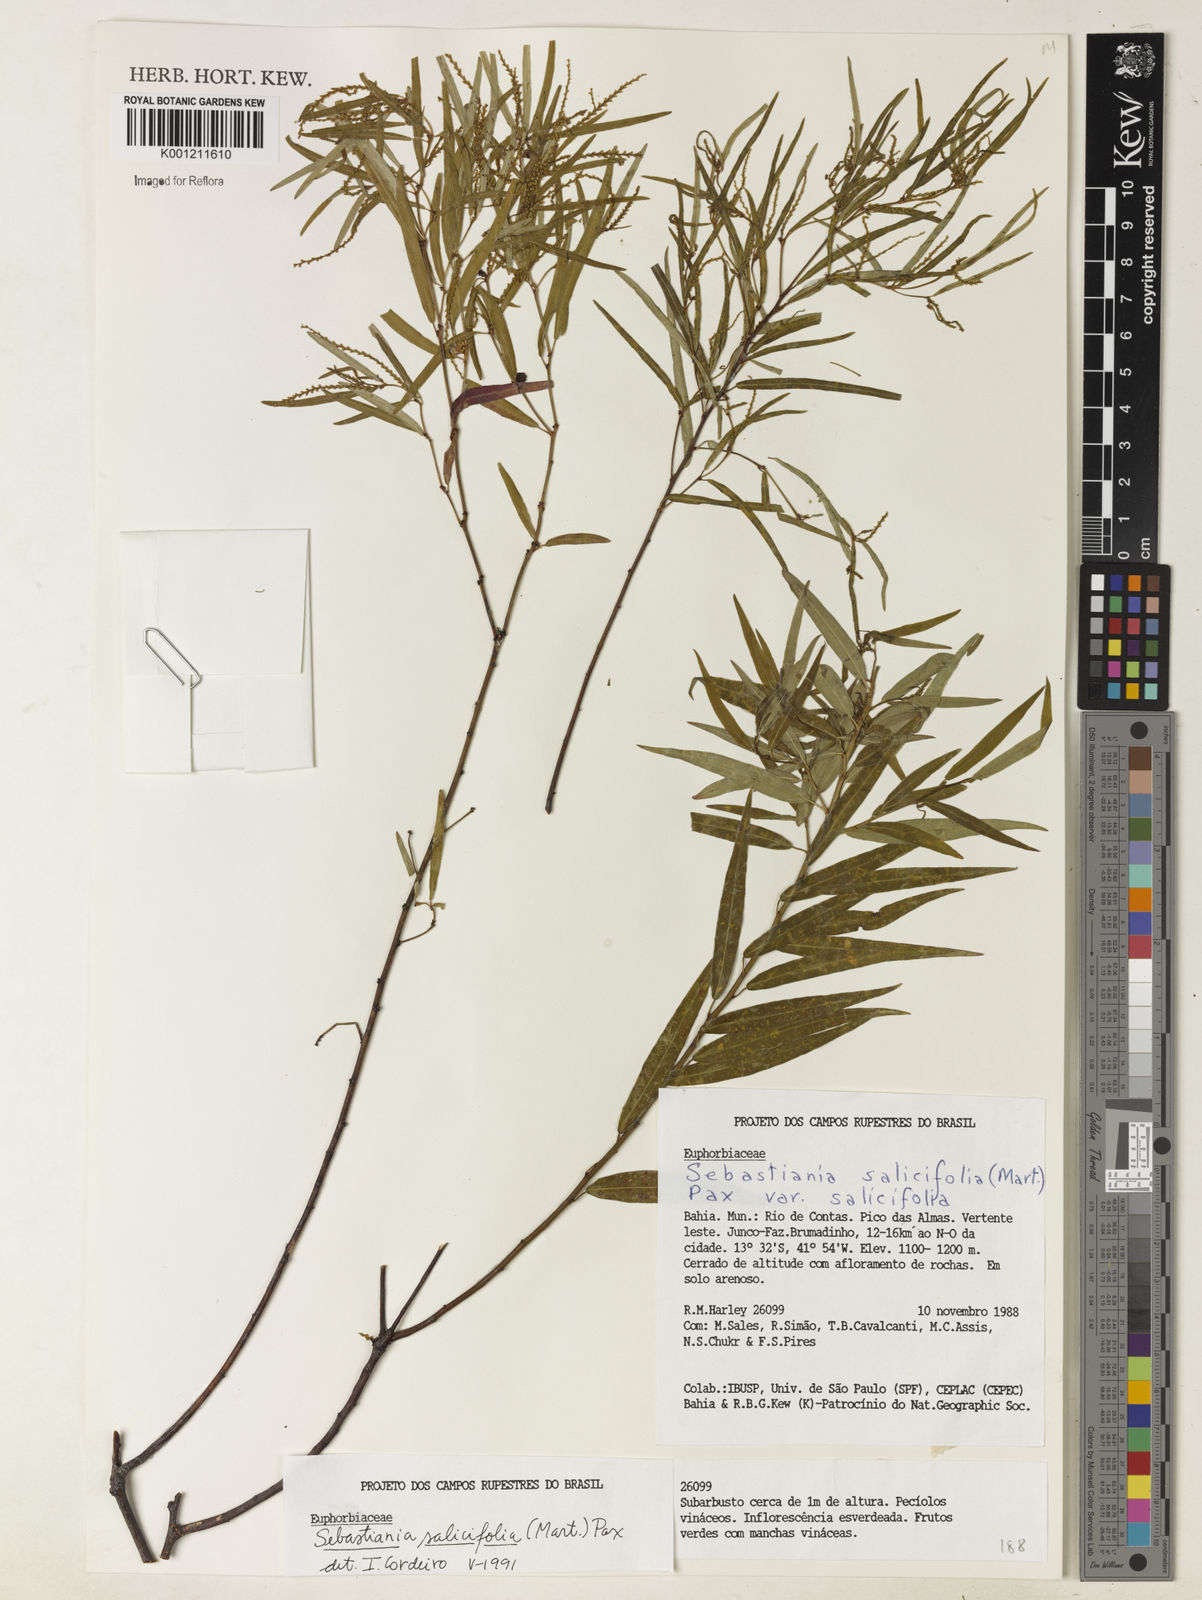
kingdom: Plantae
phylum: Tracheophyta
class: Magnoliopsida
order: Malpighiales
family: Euphorbiaceae
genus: Microstachys
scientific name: Microstachys
